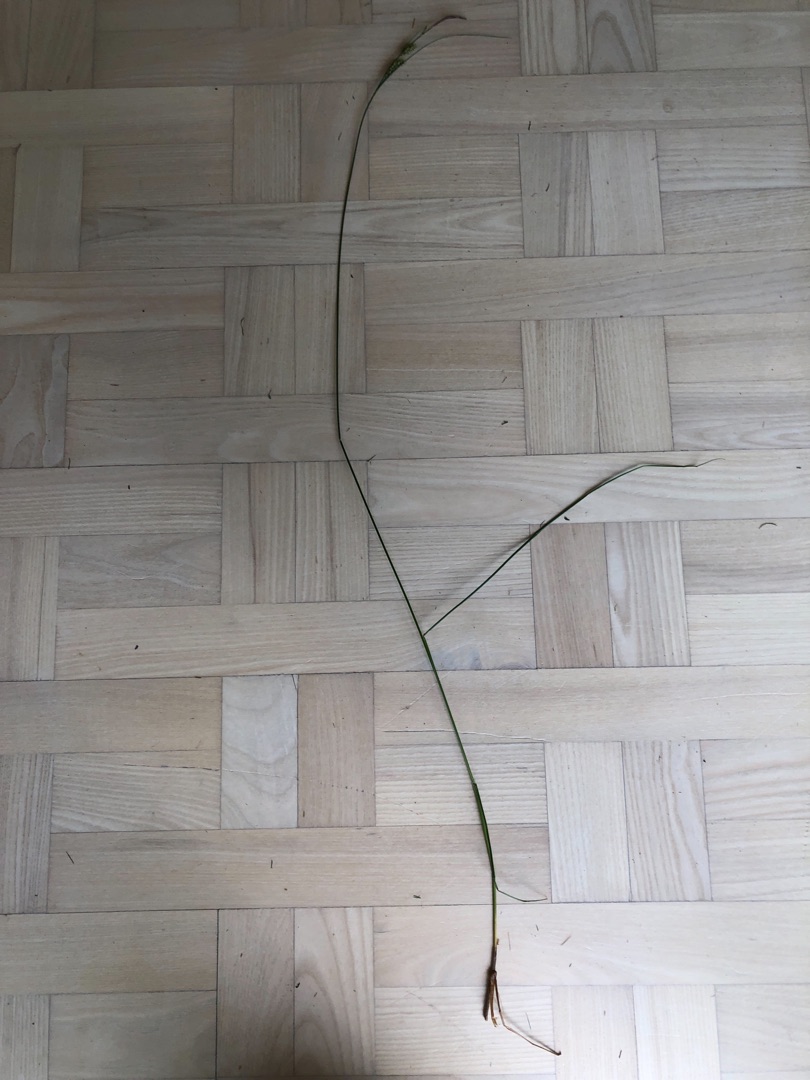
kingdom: Plantae
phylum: Tracheophyta
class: Liliopsida
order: Poales
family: Cyperaceae
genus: Carex
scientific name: Carex lasiocarpa
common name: Tråd-star
